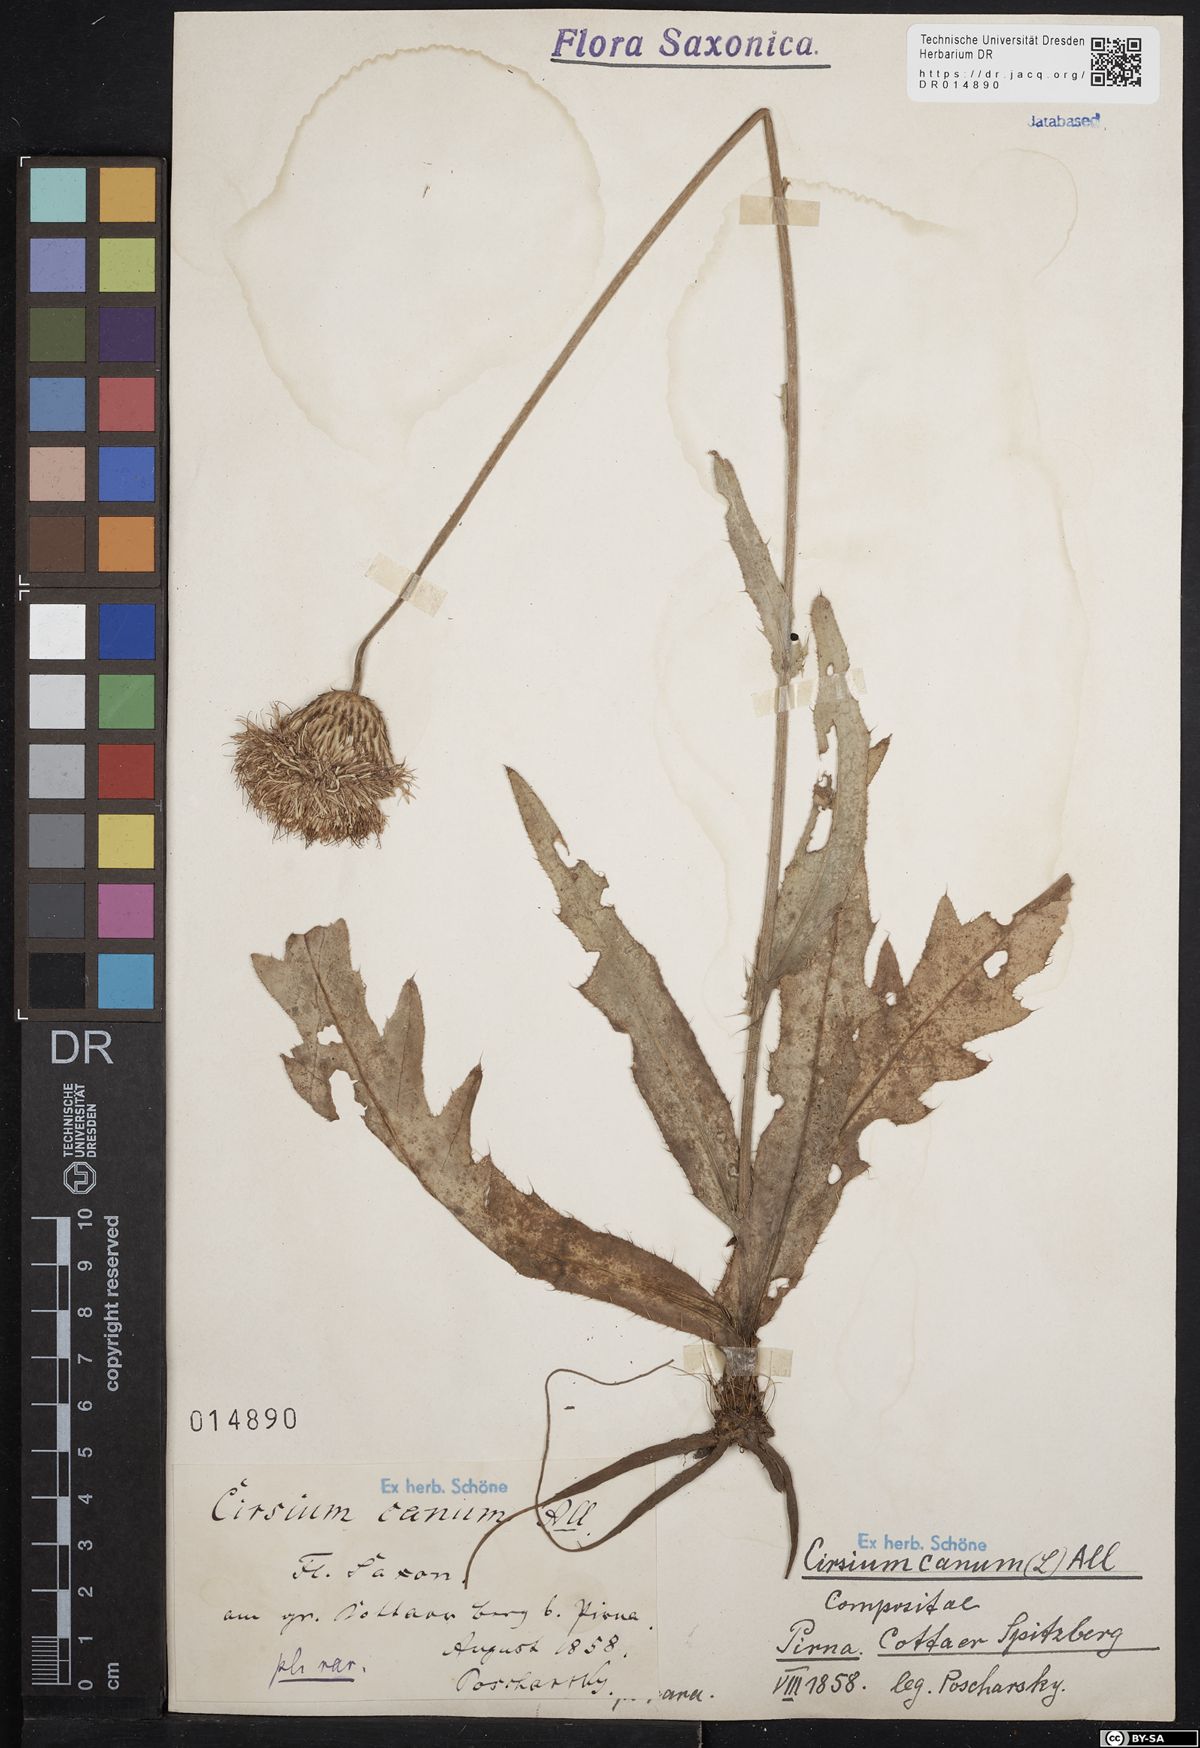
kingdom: Plantae
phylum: Tracheophyta
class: Magnoliopsida
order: Asterales
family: Asteraceae
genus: Cirsium
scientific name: Cirsium canum
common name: Queen anne's thistle
